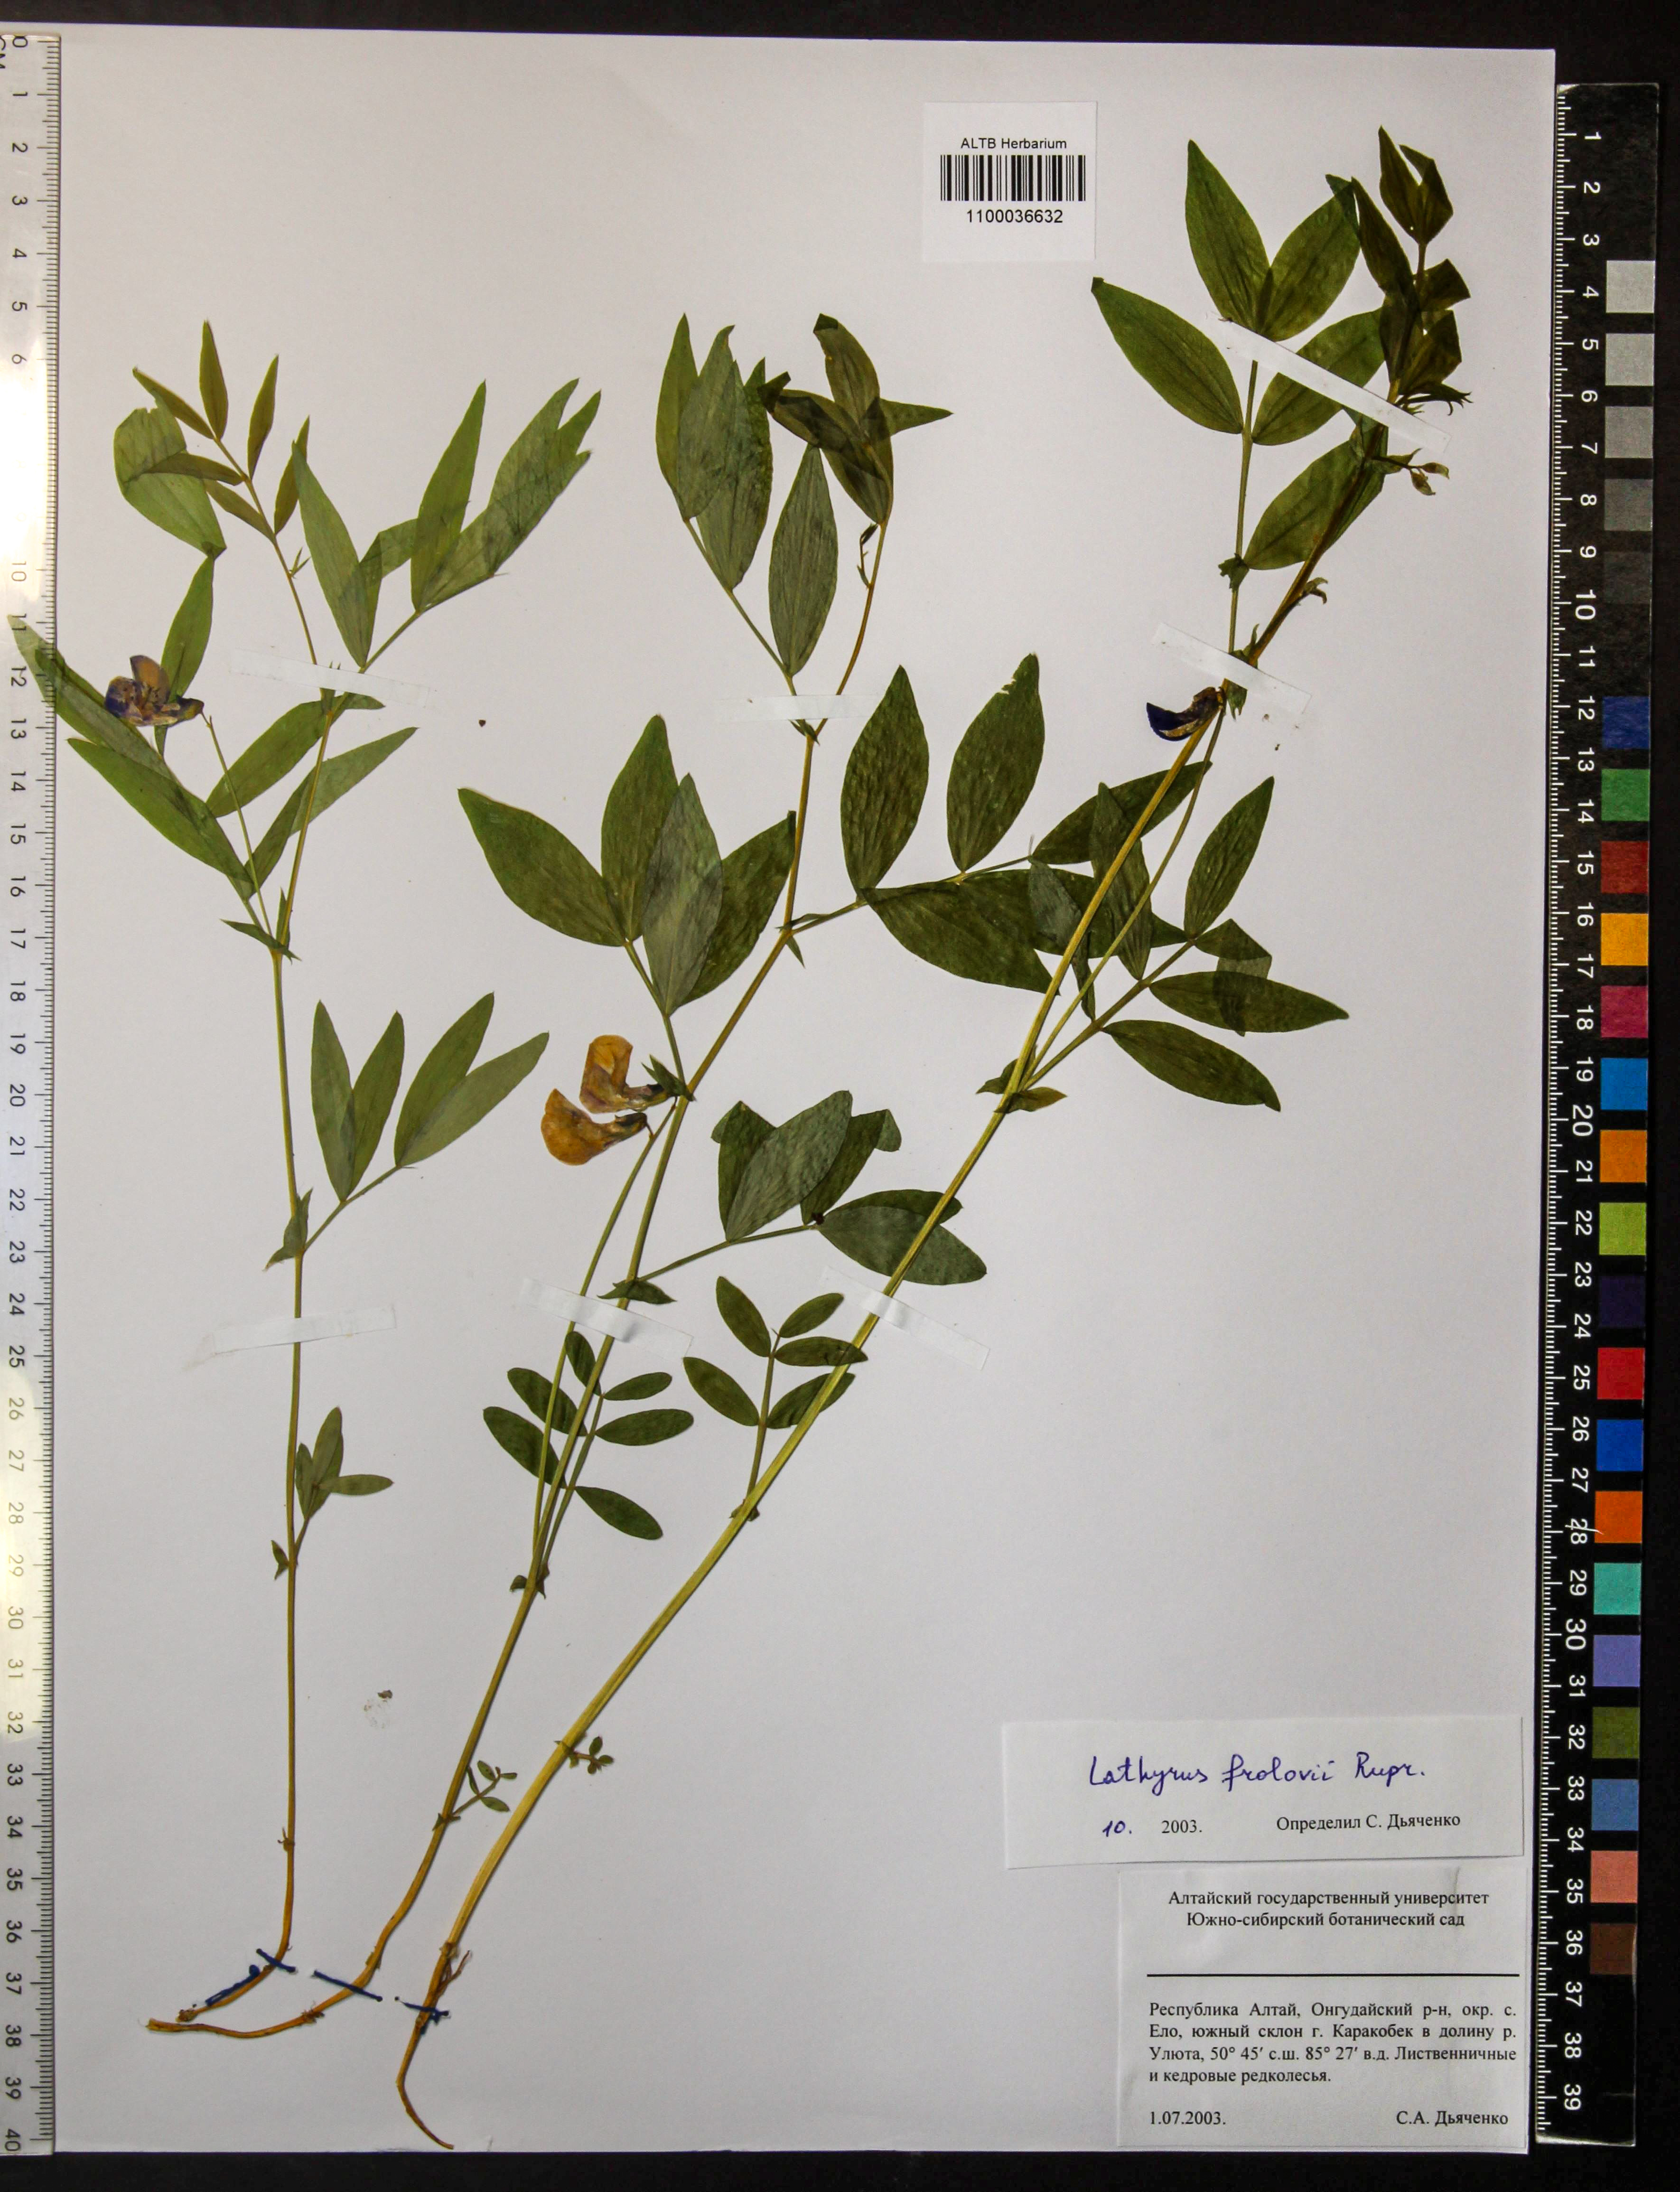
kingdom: Plantae
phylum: Tracheophyta
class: Magnoliopsida
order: Fabales
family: Fabaceae
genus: Lathyrus
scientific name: Lathyrus frolovii
